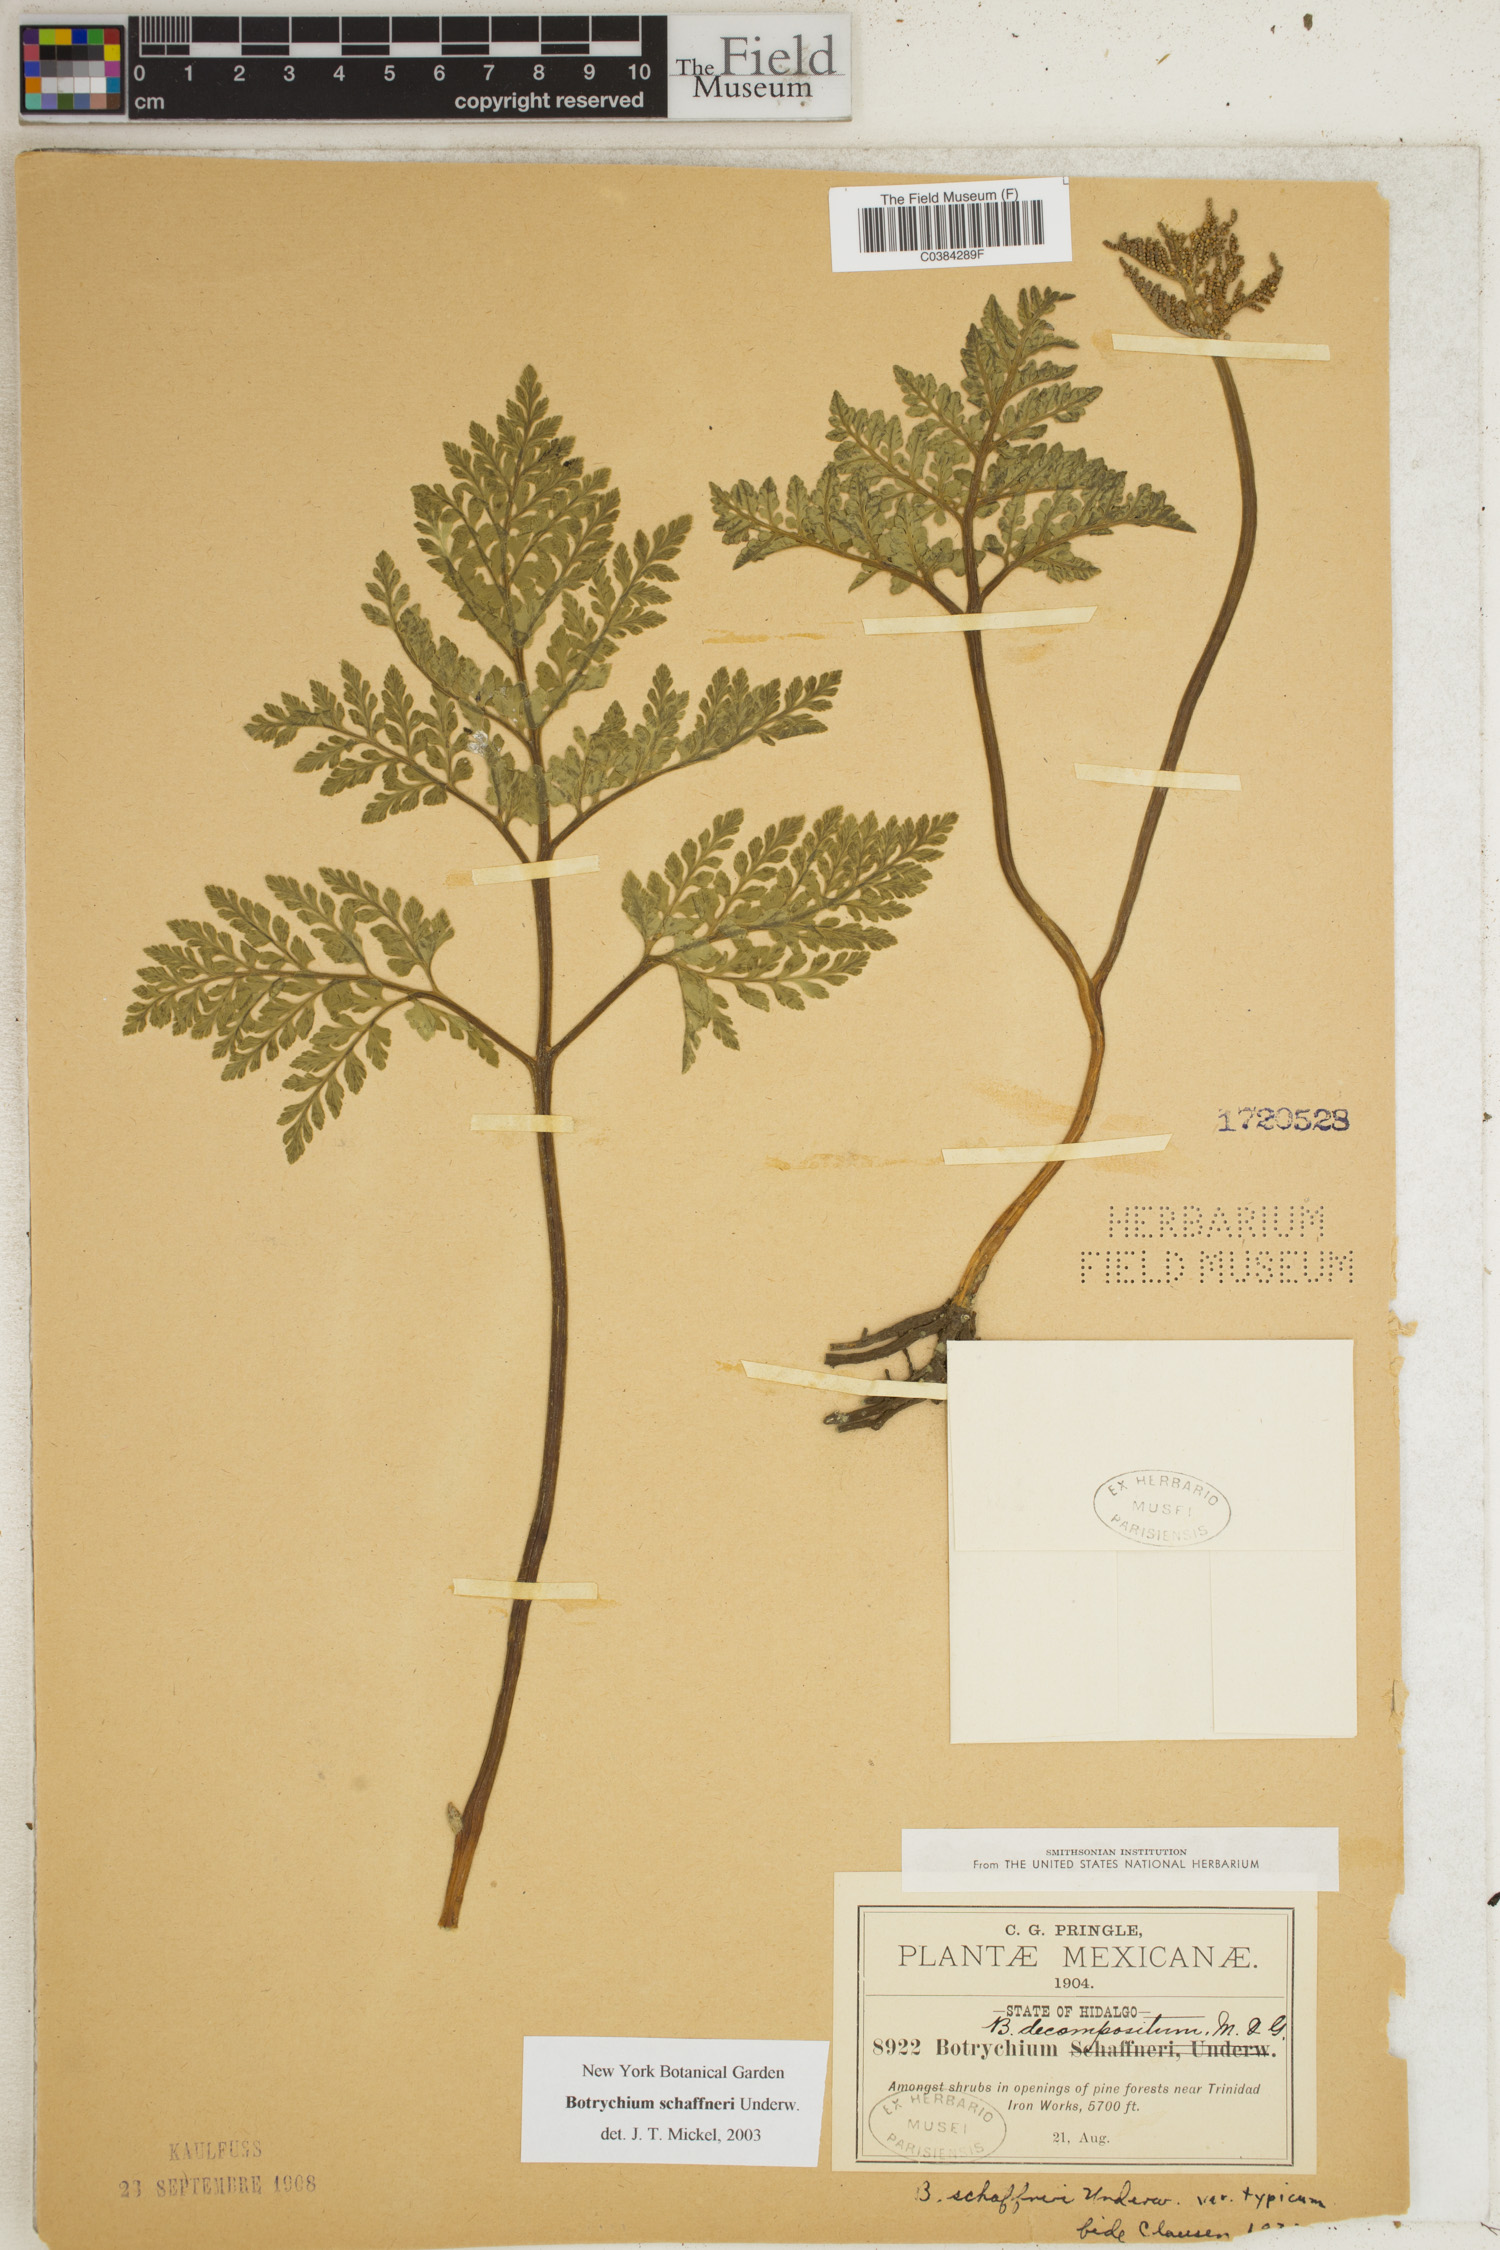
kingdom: Plantae
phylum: Tracheophyta
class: Polypodiopsida
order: Ophioglossales
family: Ophioglossaceae
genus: Sceptridium
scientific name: Sceptridium schaffneri
